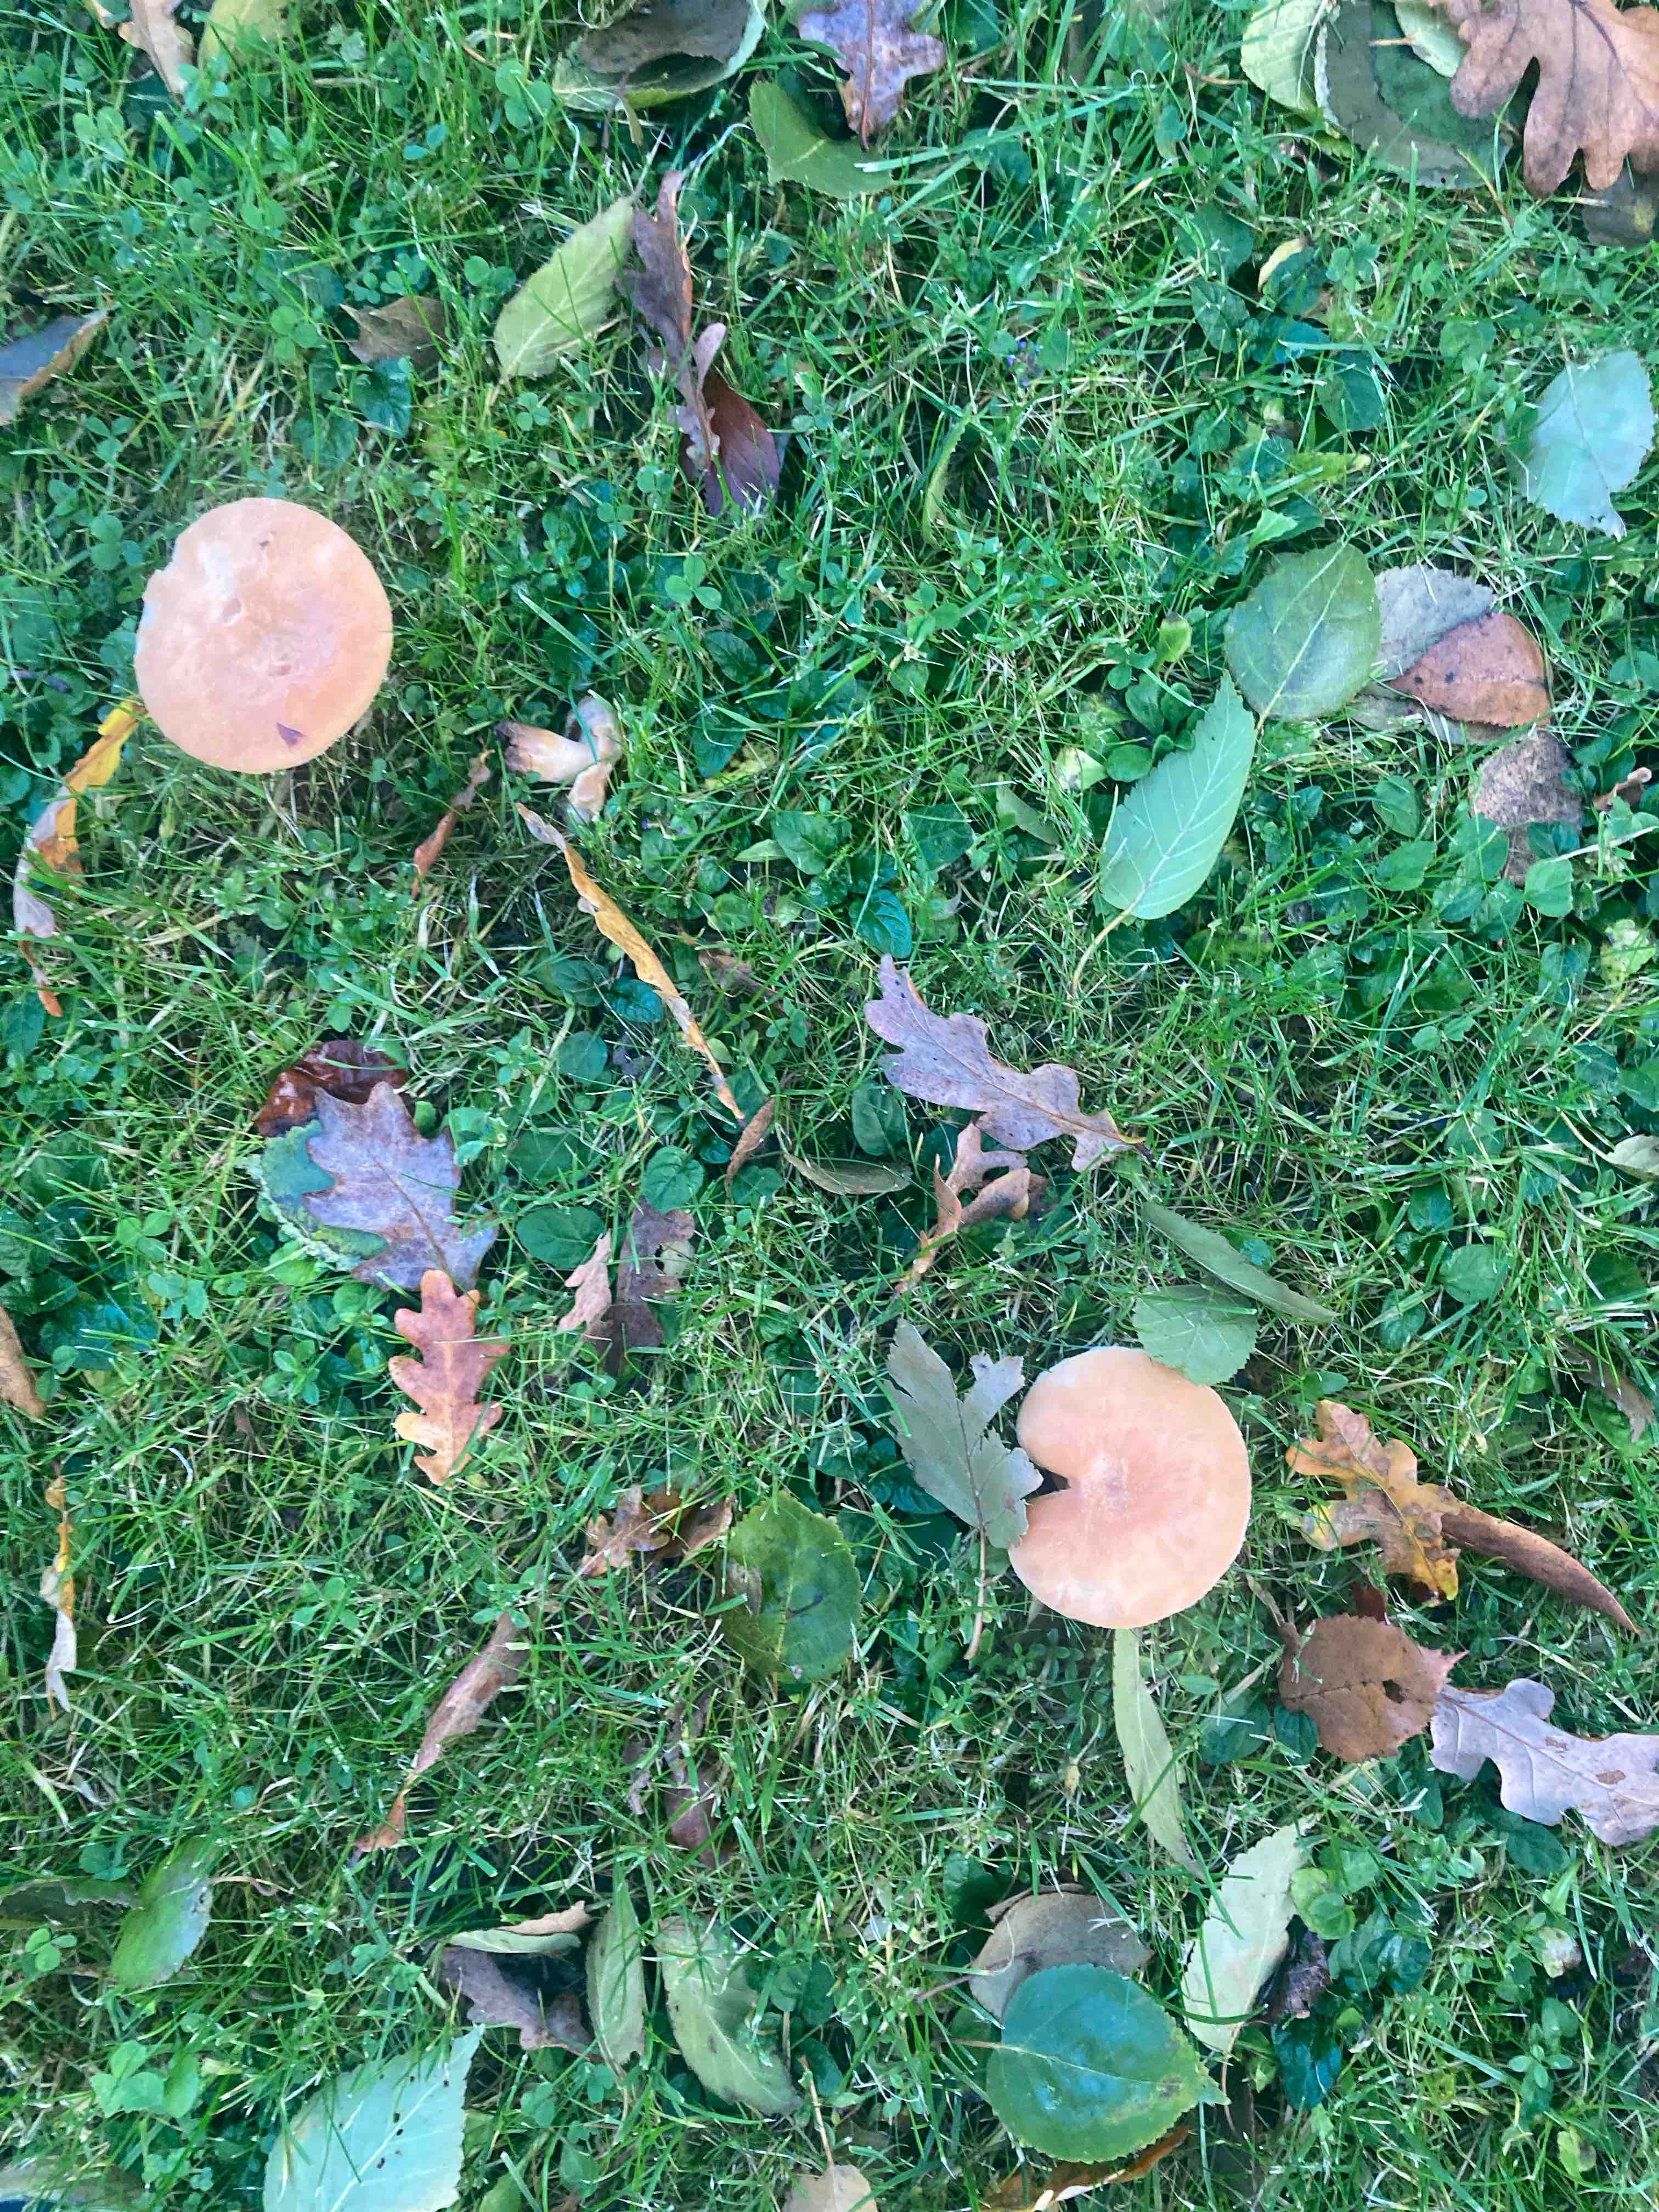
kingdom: Fungi
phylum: Basidiomycota
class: Agaricomycetes
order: Russulales
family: Russulaceae
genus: Lactarius
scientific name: Lactarius pubescens
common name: dunet mælkehat
